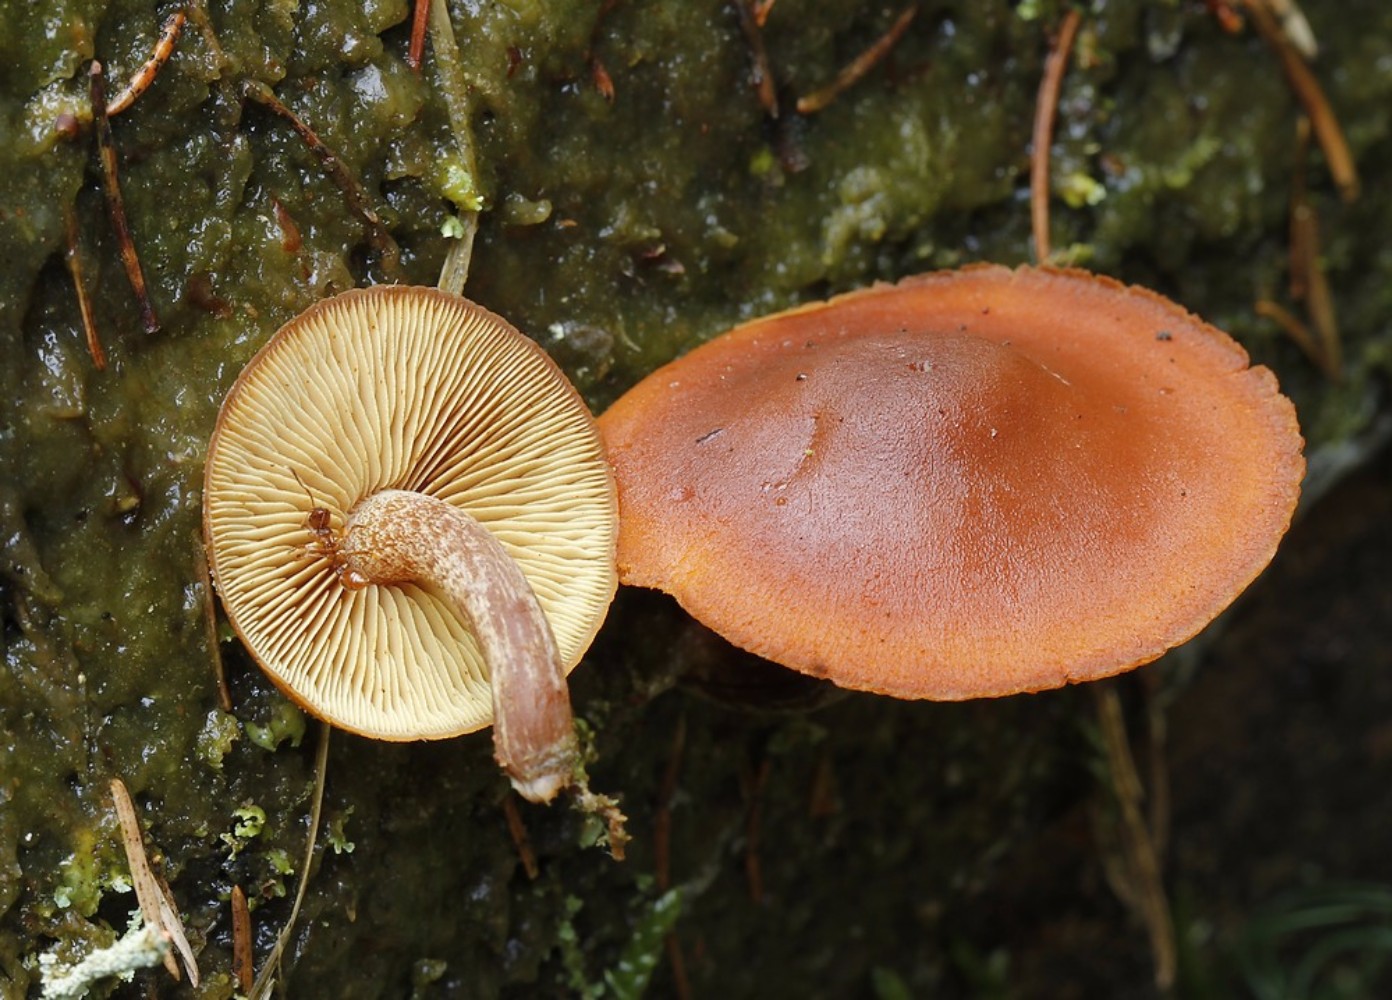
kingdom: Fungi
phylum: Basidiomycota
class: Agaricomycetes
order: Agaricales
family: Hymenogastraceae
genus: Gymnopilus
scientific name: Gymnopilus picreus
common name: puklet flammehat
